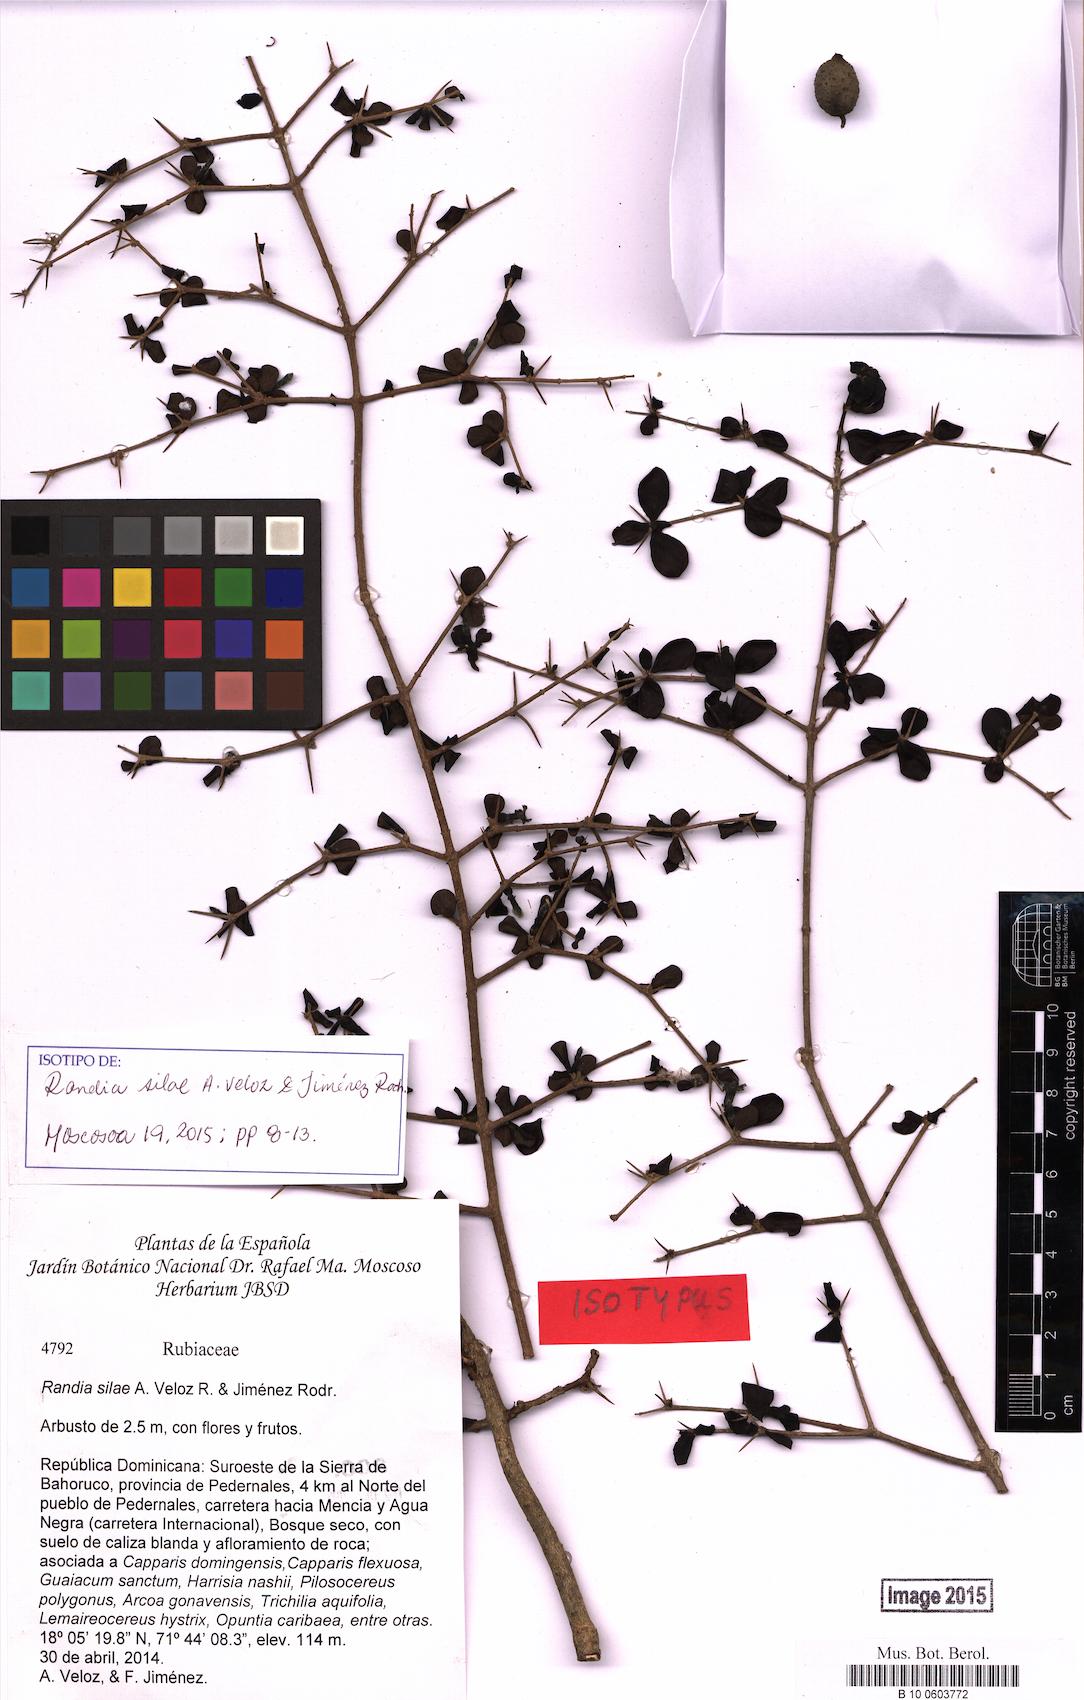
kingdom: Plantae
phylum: Tracheophyta
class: Magnoliopsida
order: Gentianales
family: Rubiaceae
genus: Randia
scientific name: Randia silae
